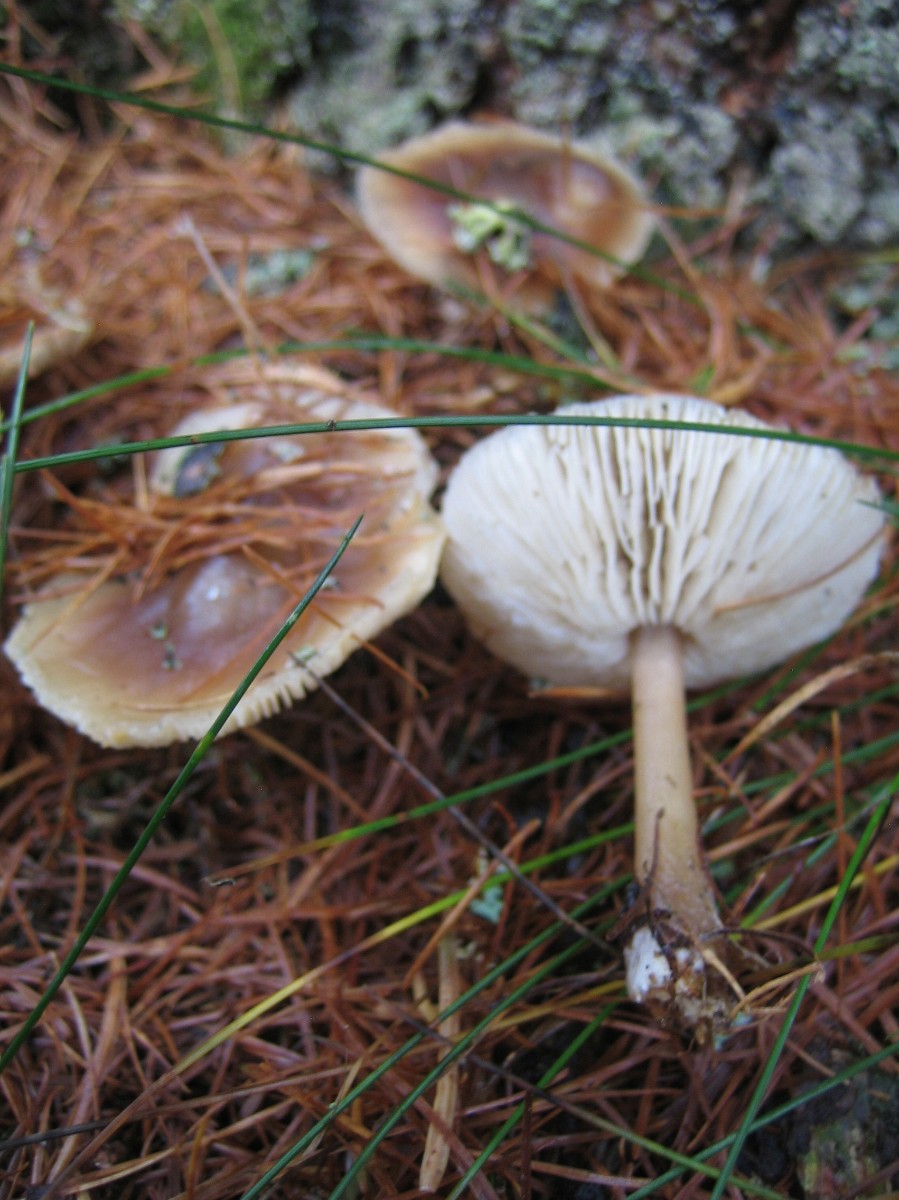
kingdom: Fungi
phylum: Basidiomycota
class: Agaricomycetes
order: Agaricales
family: Omphalotaceae
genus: Rhodocollybia
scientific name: Rhodocollybia asema
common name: horngrå fladhat
